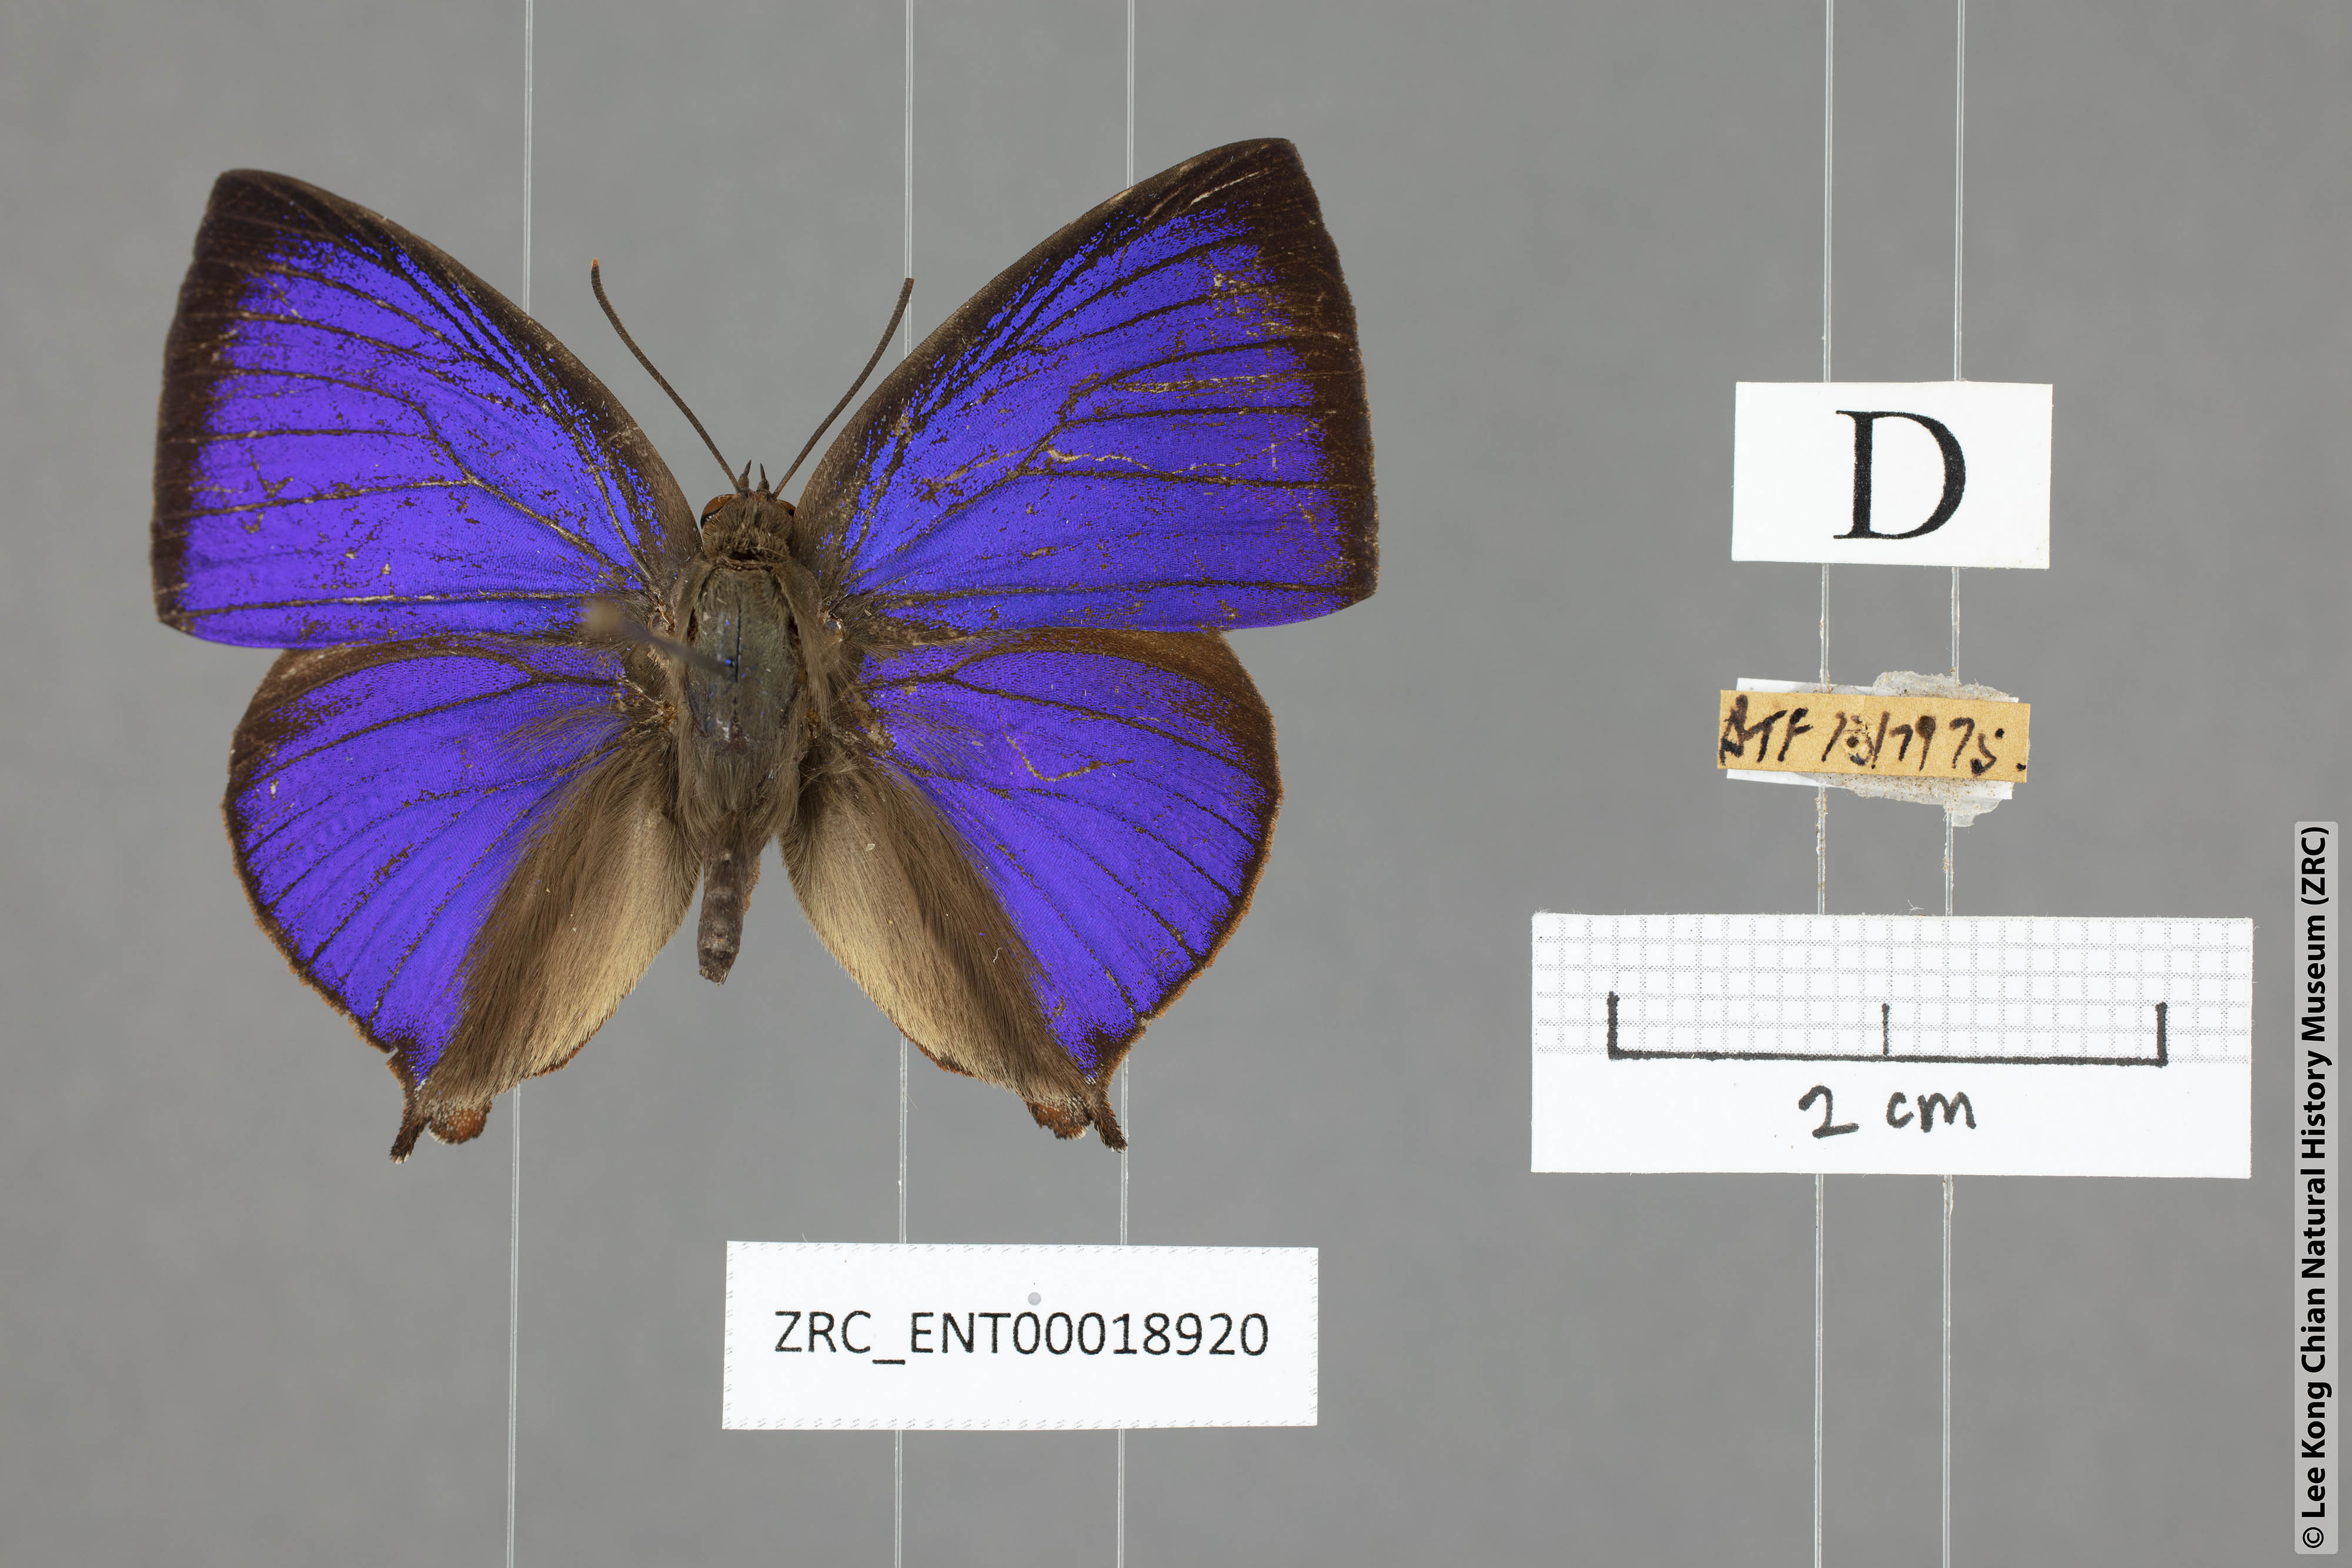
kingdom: Animalia
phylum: Arthropoda
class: Insecta
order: Lepidoptera
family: Lycaenidae
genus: Amblypodia
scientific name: Amblypodia narada
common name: Blue leaf blue
